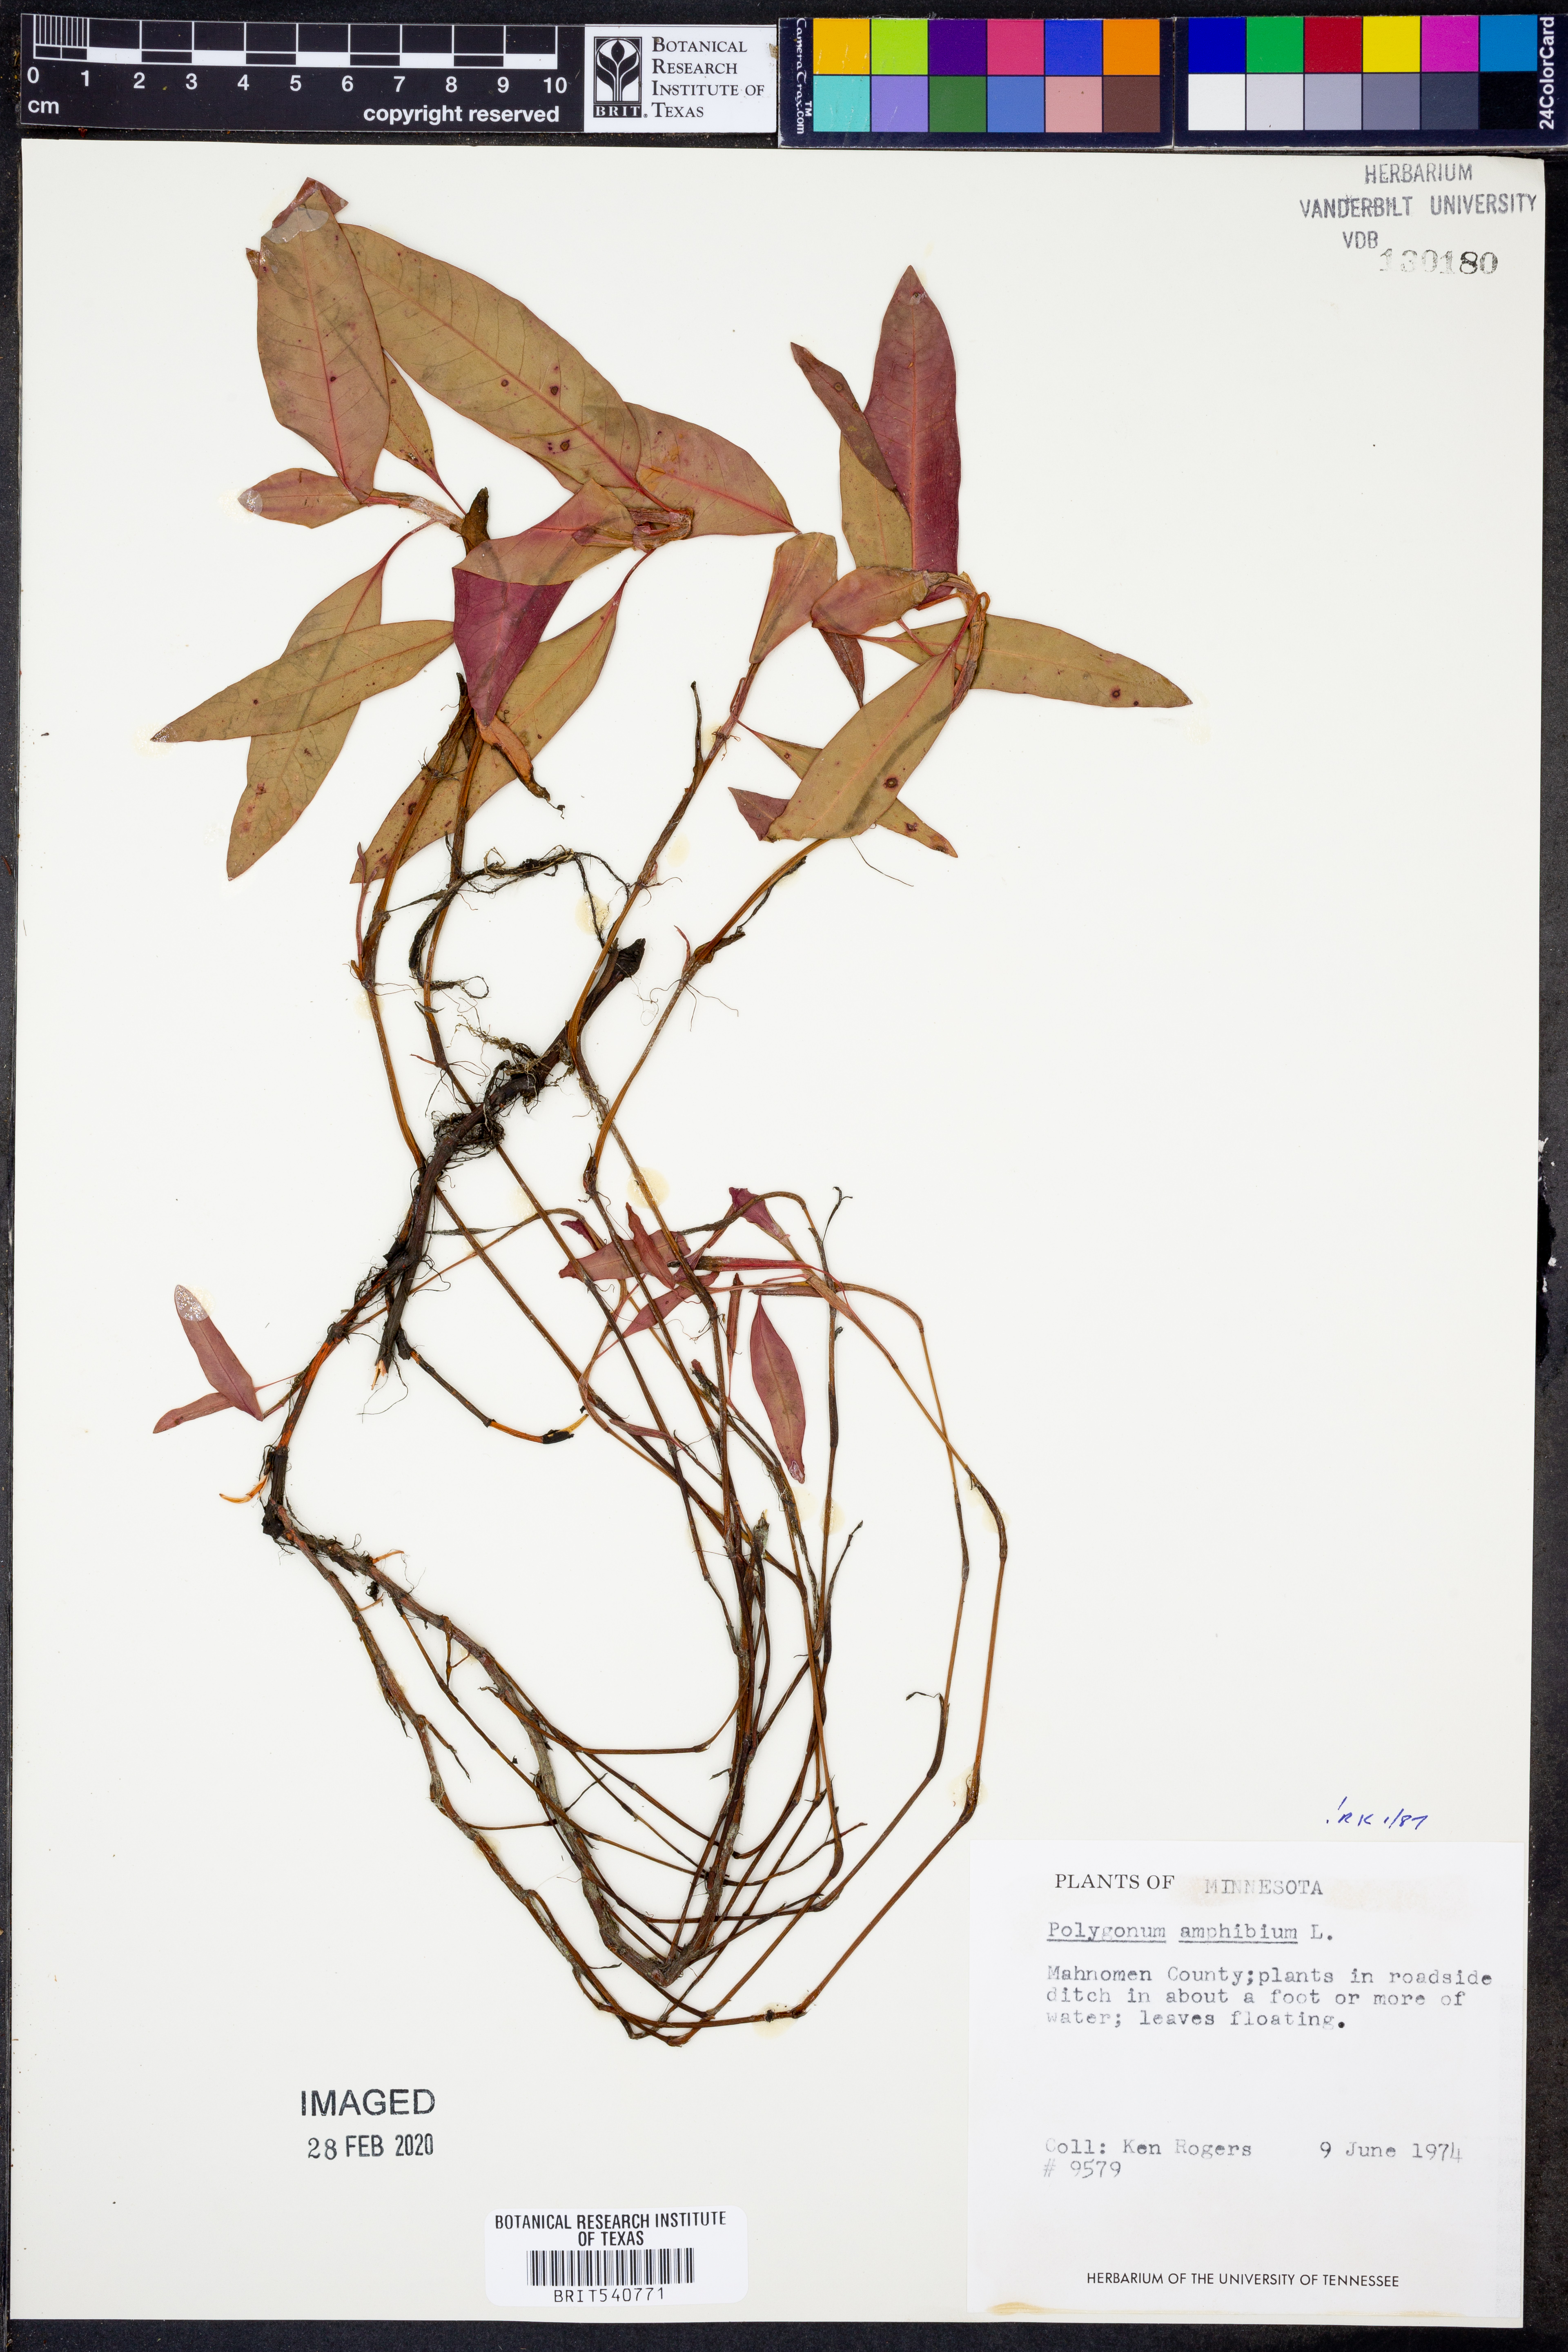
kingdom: Plantae
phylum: Tracheophyta
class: Magnoliopsida
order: Caryophyllales
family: Polygonaceae
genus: Persicaria
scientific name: Persicaria amphibia
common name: Amphibious bistort
